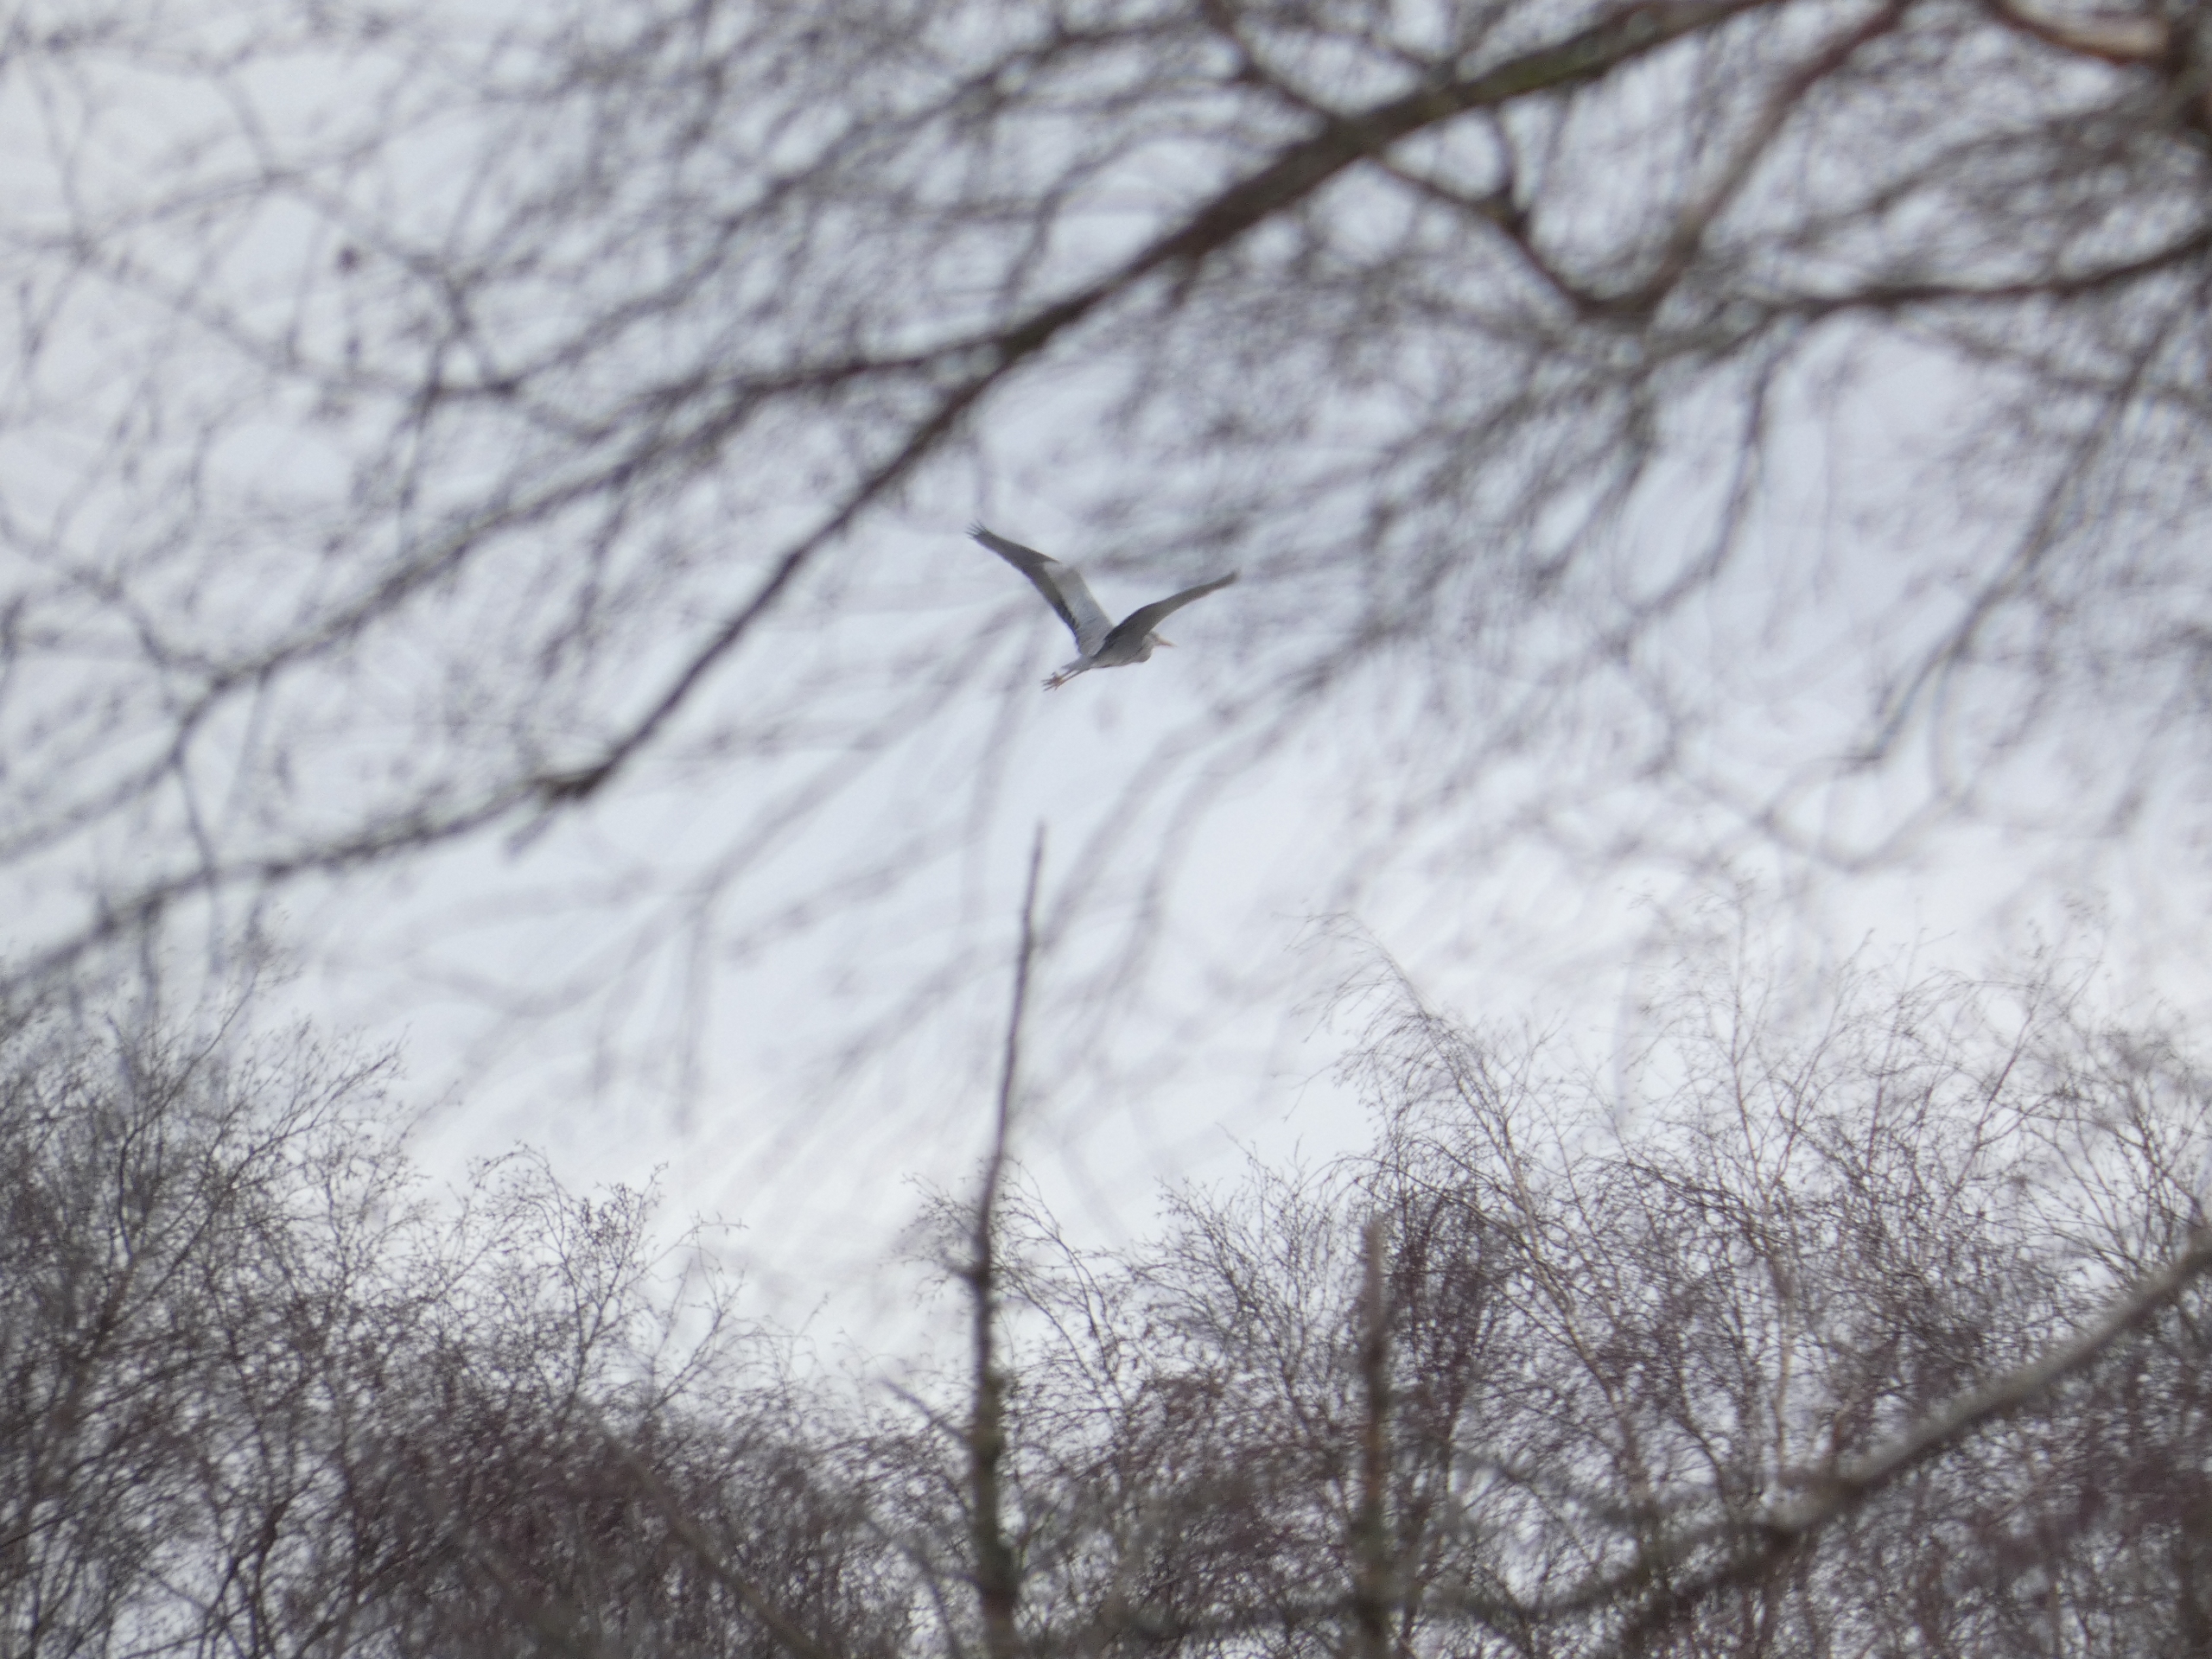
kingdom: Animalia
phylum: Chordata
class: Aves
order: Pelecaniformes
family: Ardeidae
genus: Ardea
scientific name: Ardea cinerea
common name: Fiskehejre
